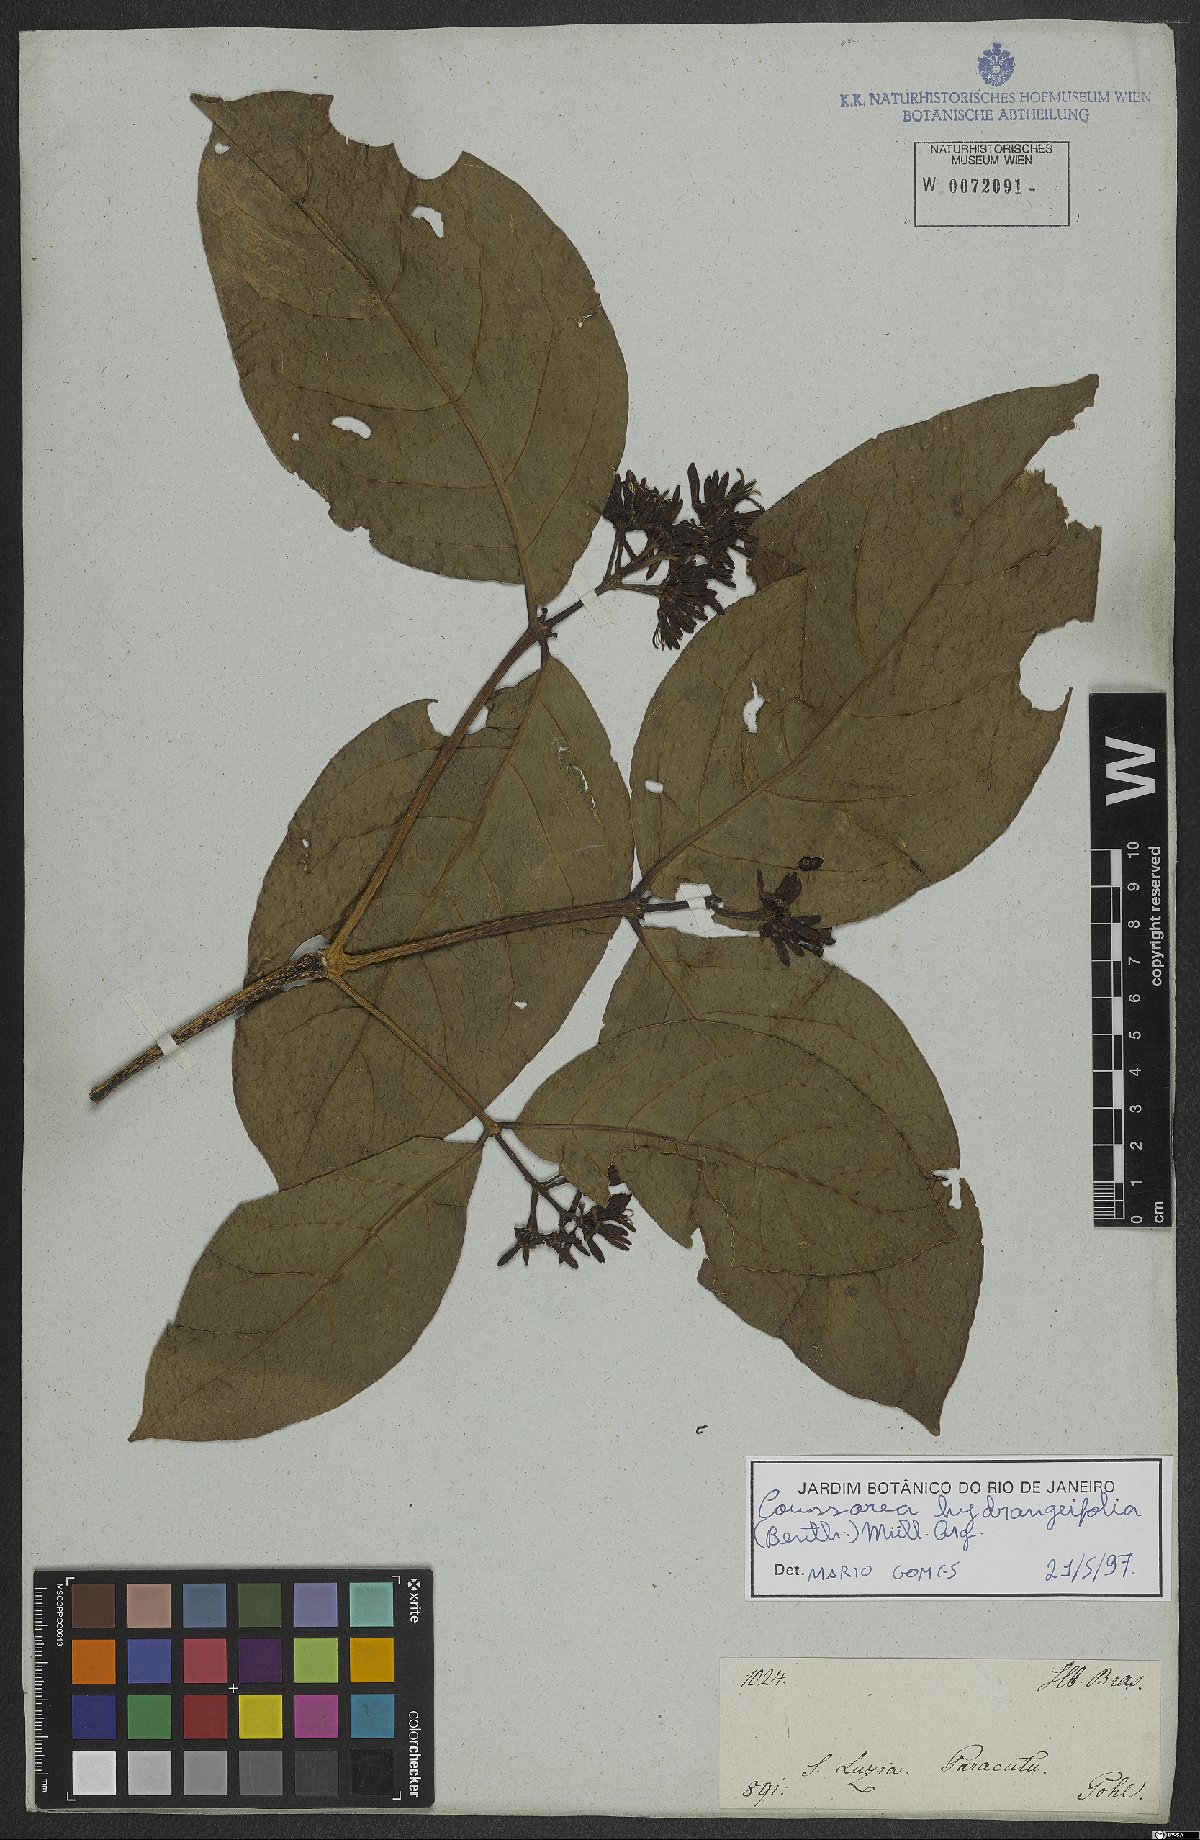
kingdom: Plantae
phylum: Tracheophyta
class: Magnoliopsida
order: Gentianales
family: Rubiaceae
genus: Coussarea
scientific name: Coussarea hydrangeifolia
